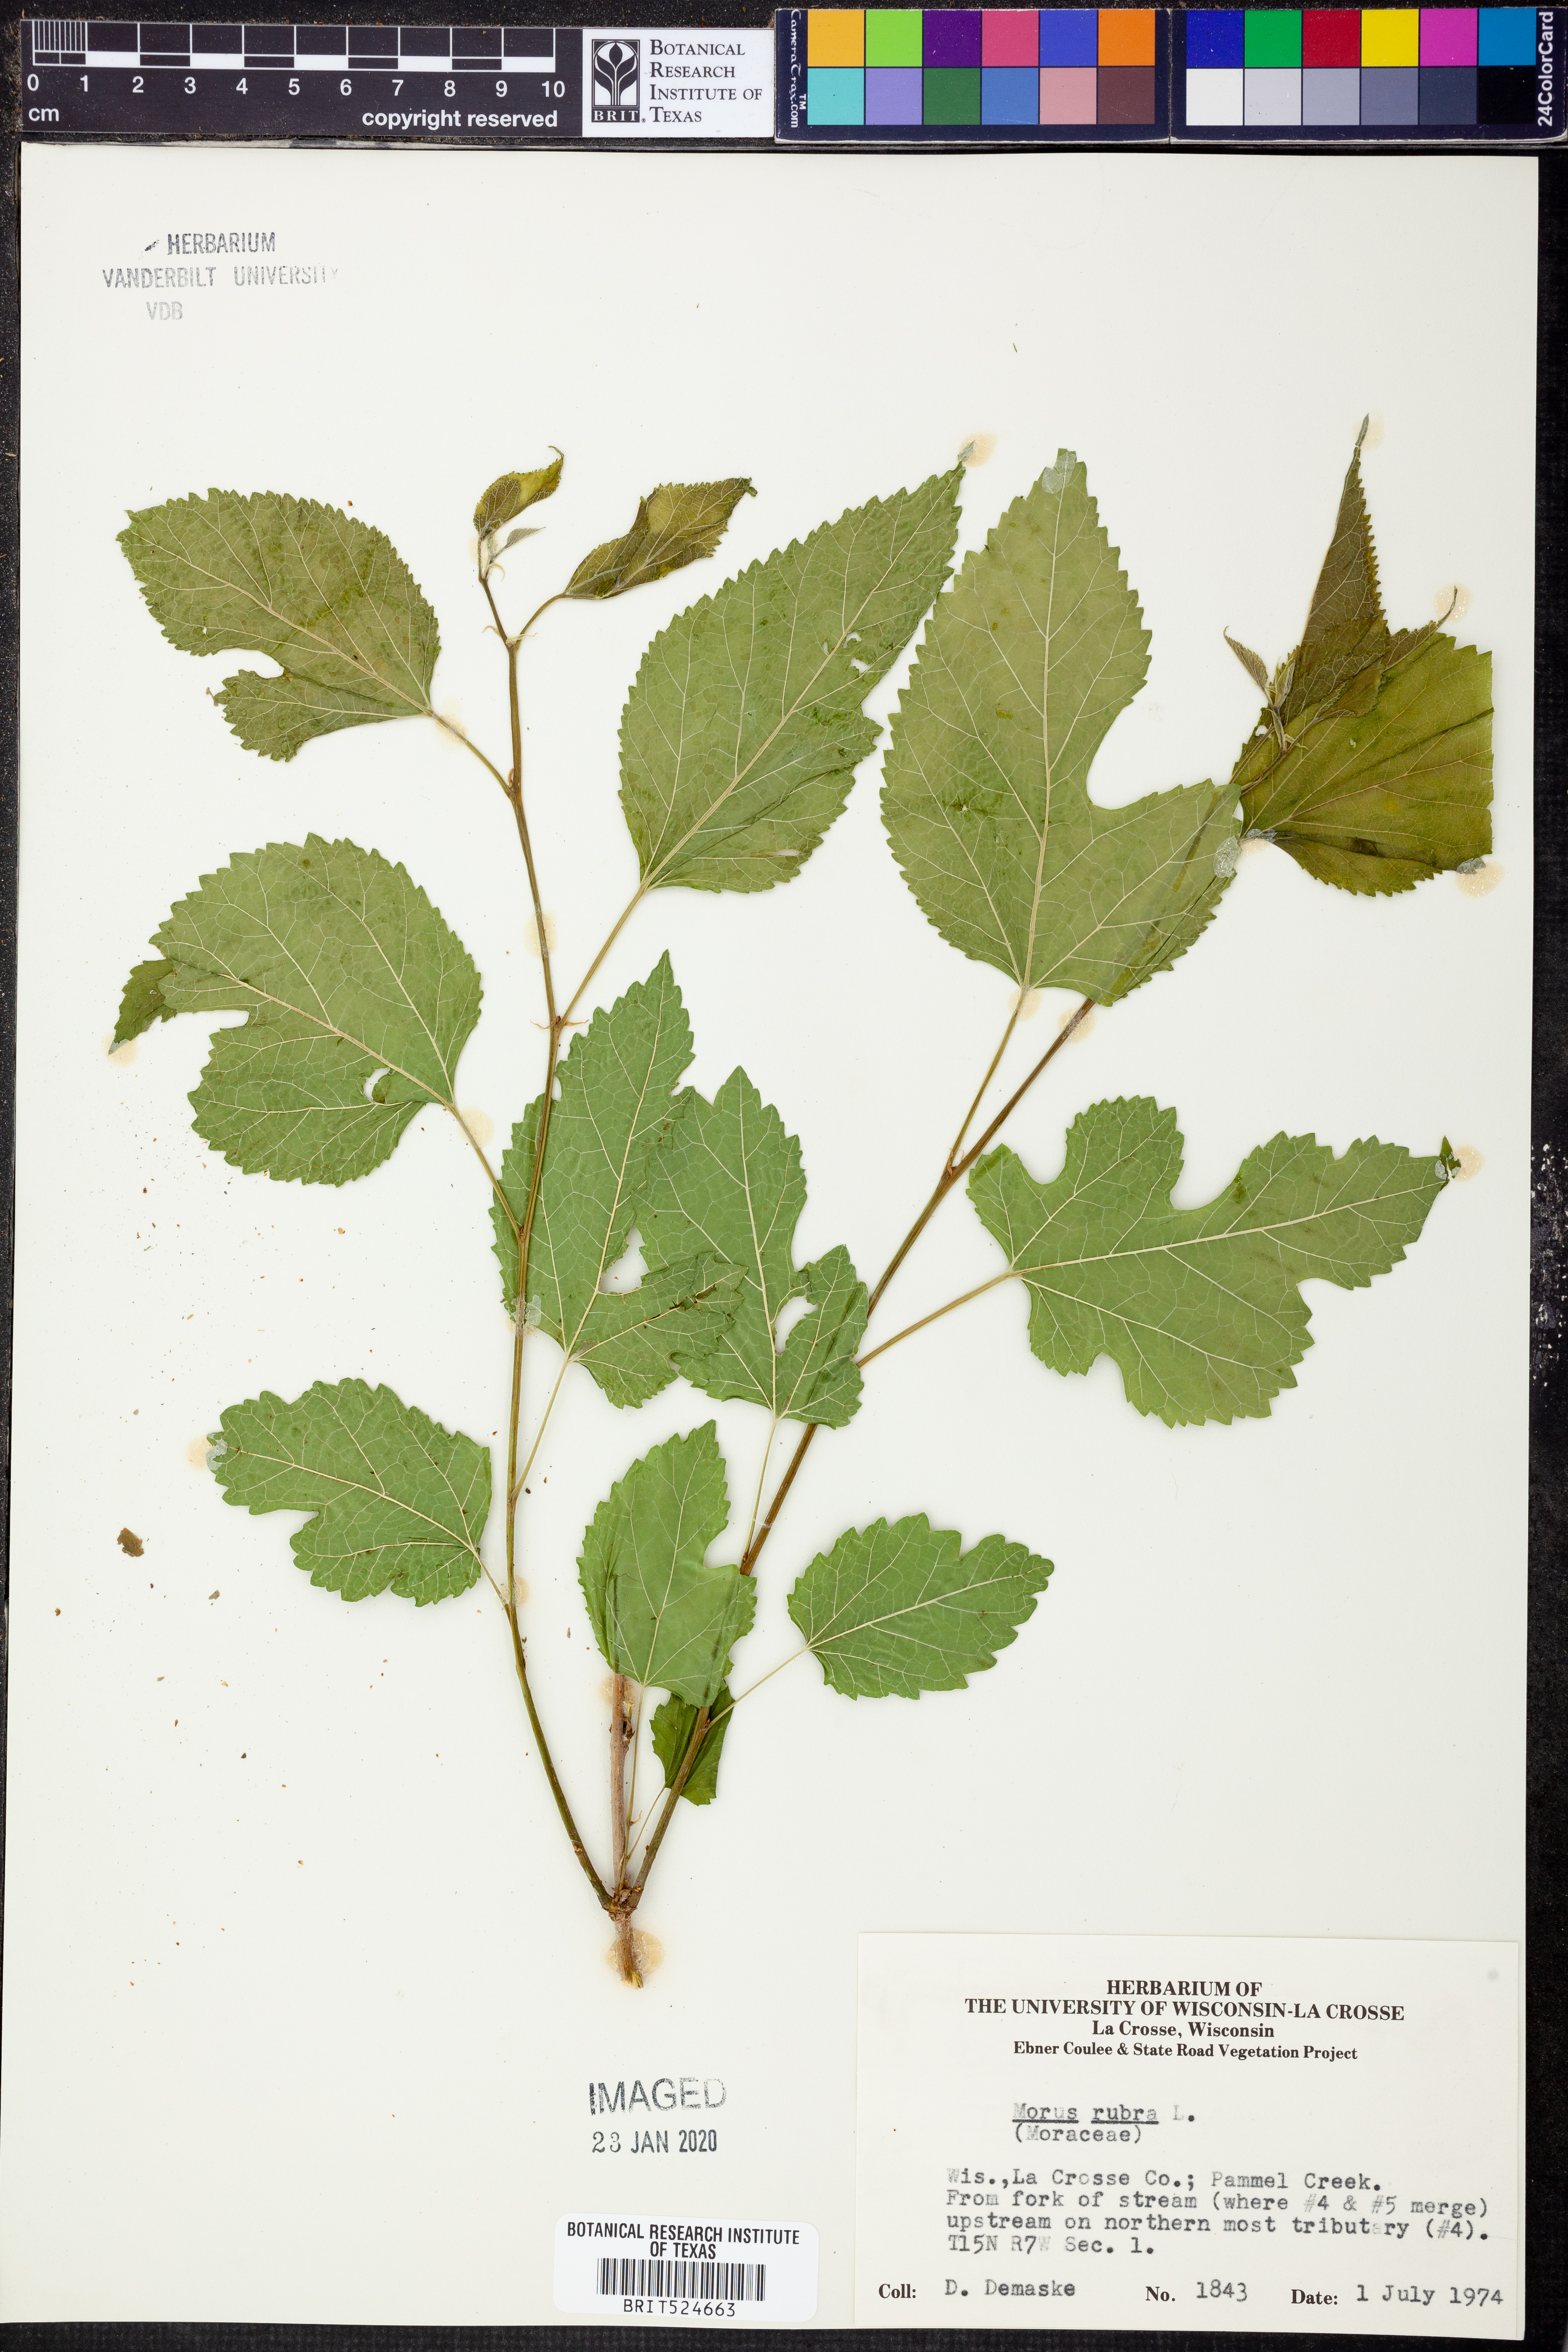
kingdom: Plantae
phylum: Tracheophyta
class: Magnoliopsida
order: Rosales
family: Moraceae
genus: Morus
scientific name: Morus rubra
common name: Red mulberry
